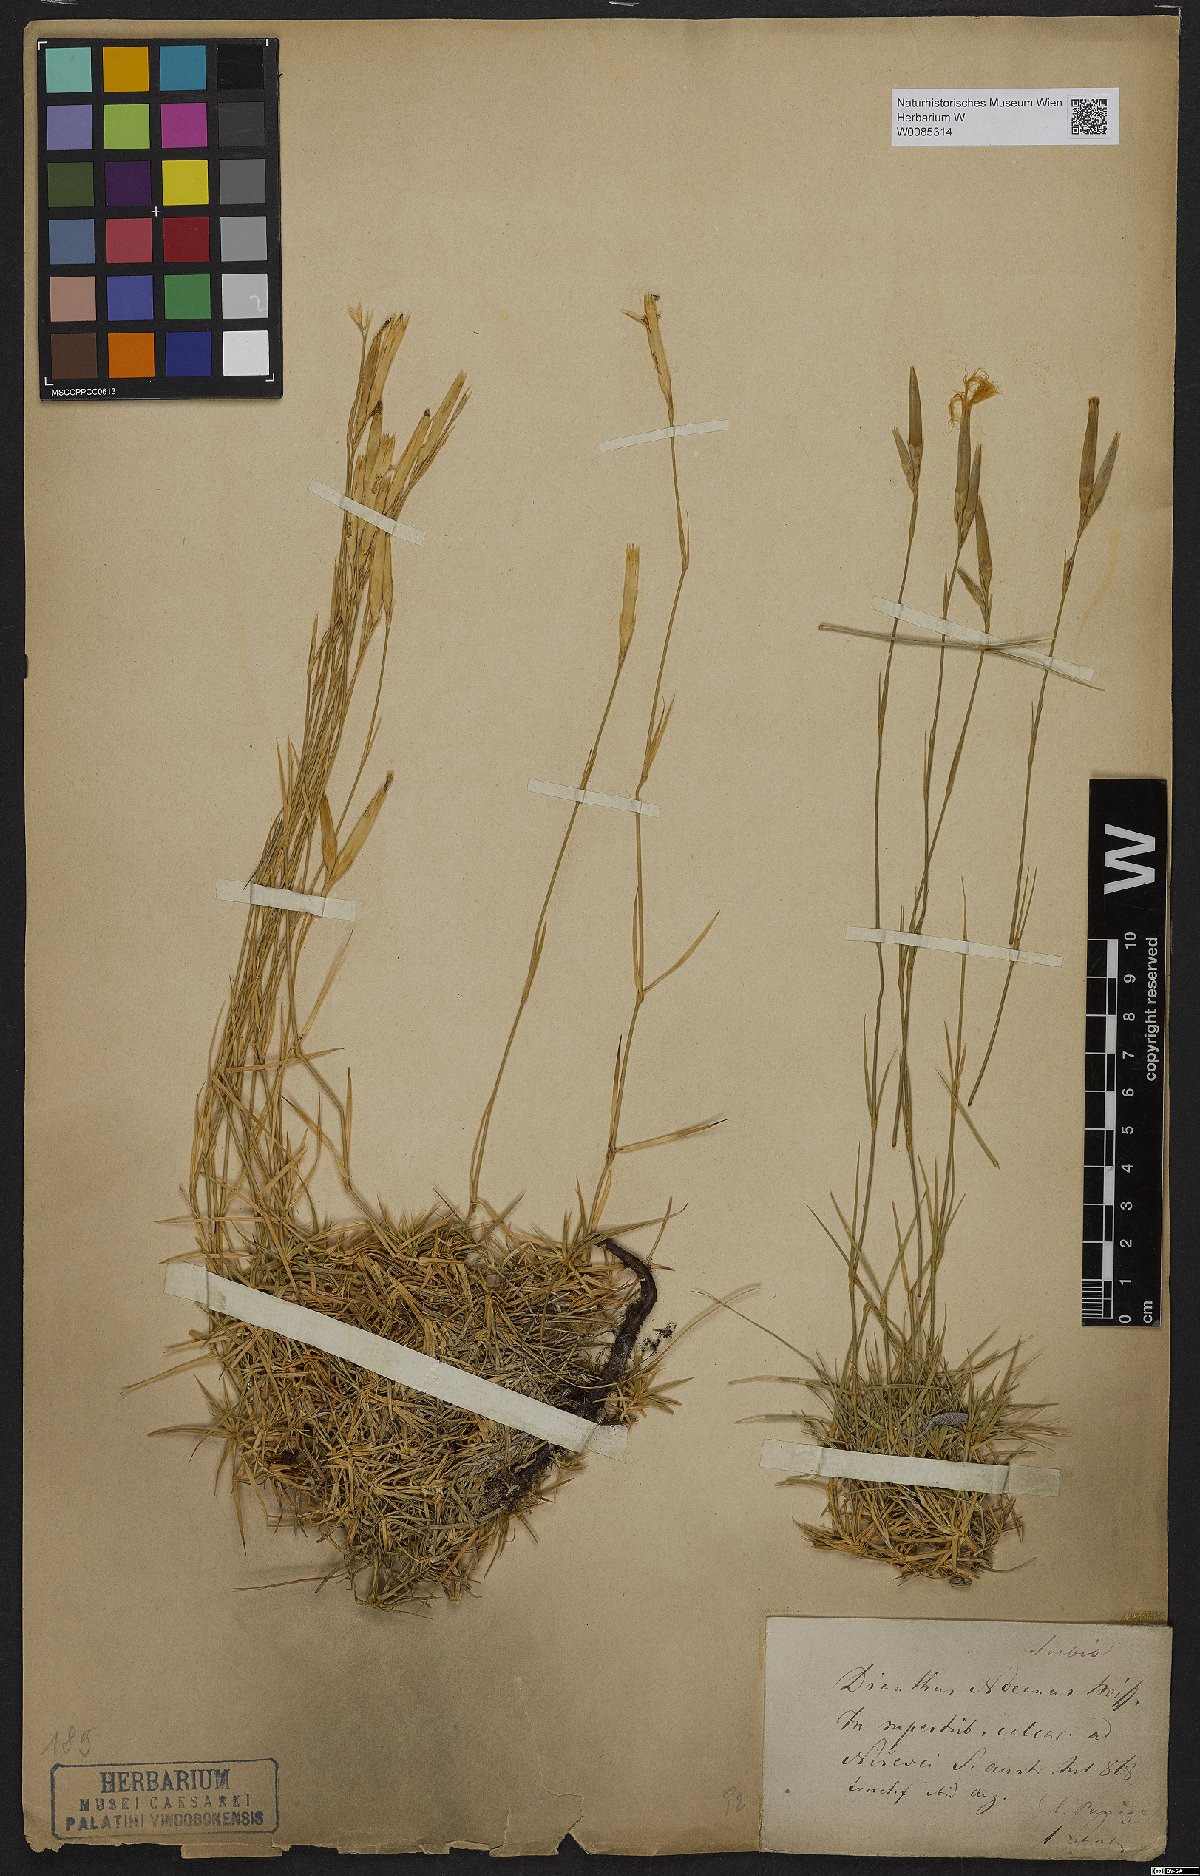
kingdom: Plantae
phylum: Tracheophyta
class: Magnoliopsida
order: Caryophyllales
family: Caryophyllaceae
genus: Dianthus
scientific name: Dianthus noeanus
